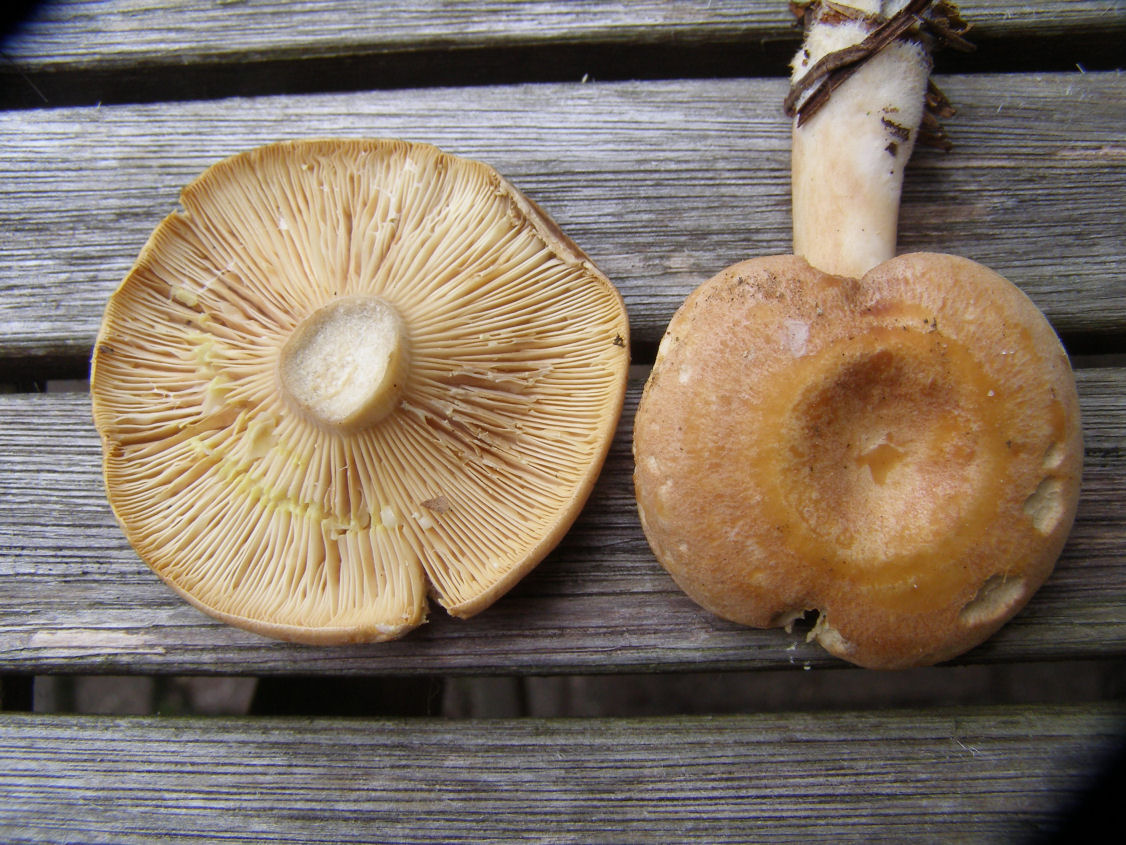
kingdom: Fungi
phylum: Basidiomycota
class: Agaricomycetes
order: Russulales
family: Russulaceae
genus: Lactarius
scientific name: Lactarius chrysorrheus
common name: svovlmælket mælkehat
